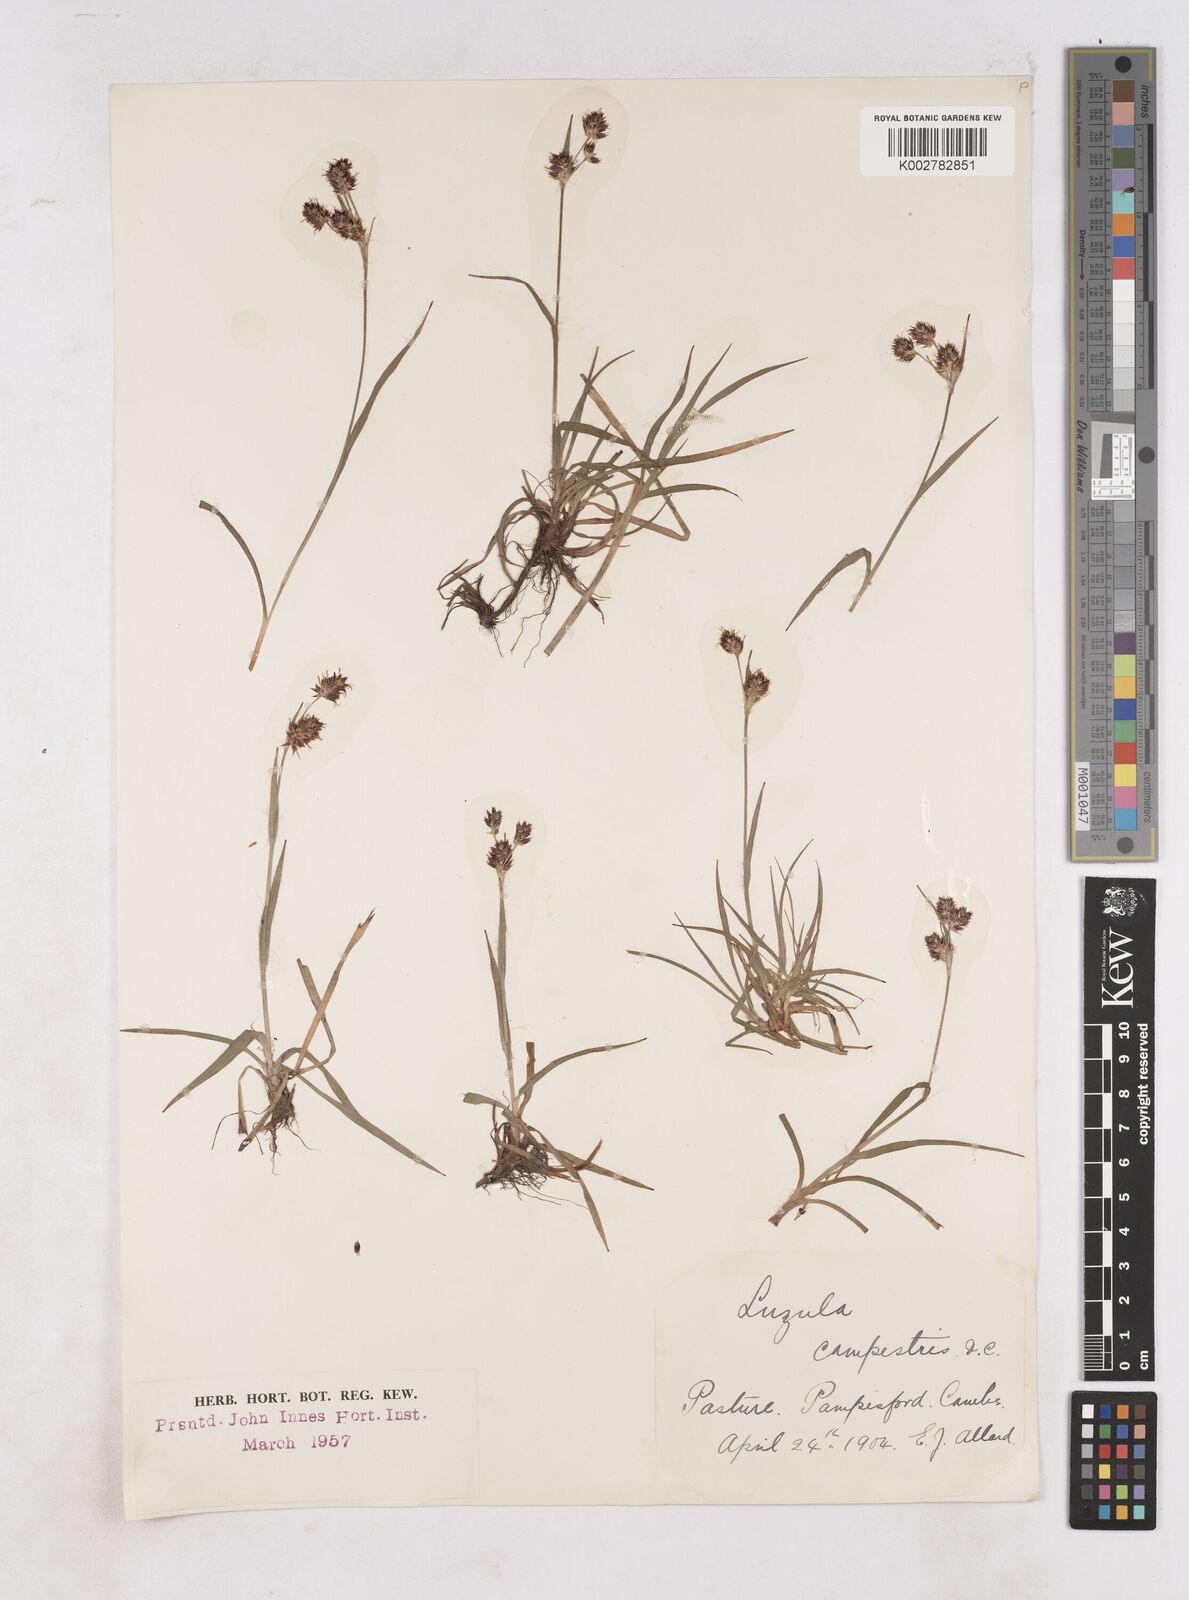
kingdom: Plantae
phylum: Tracheophyta
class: Liliopsida
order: Poales
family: Juncaceae
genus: Luzula
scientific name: Luzula campestris
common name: Field wood-rush
